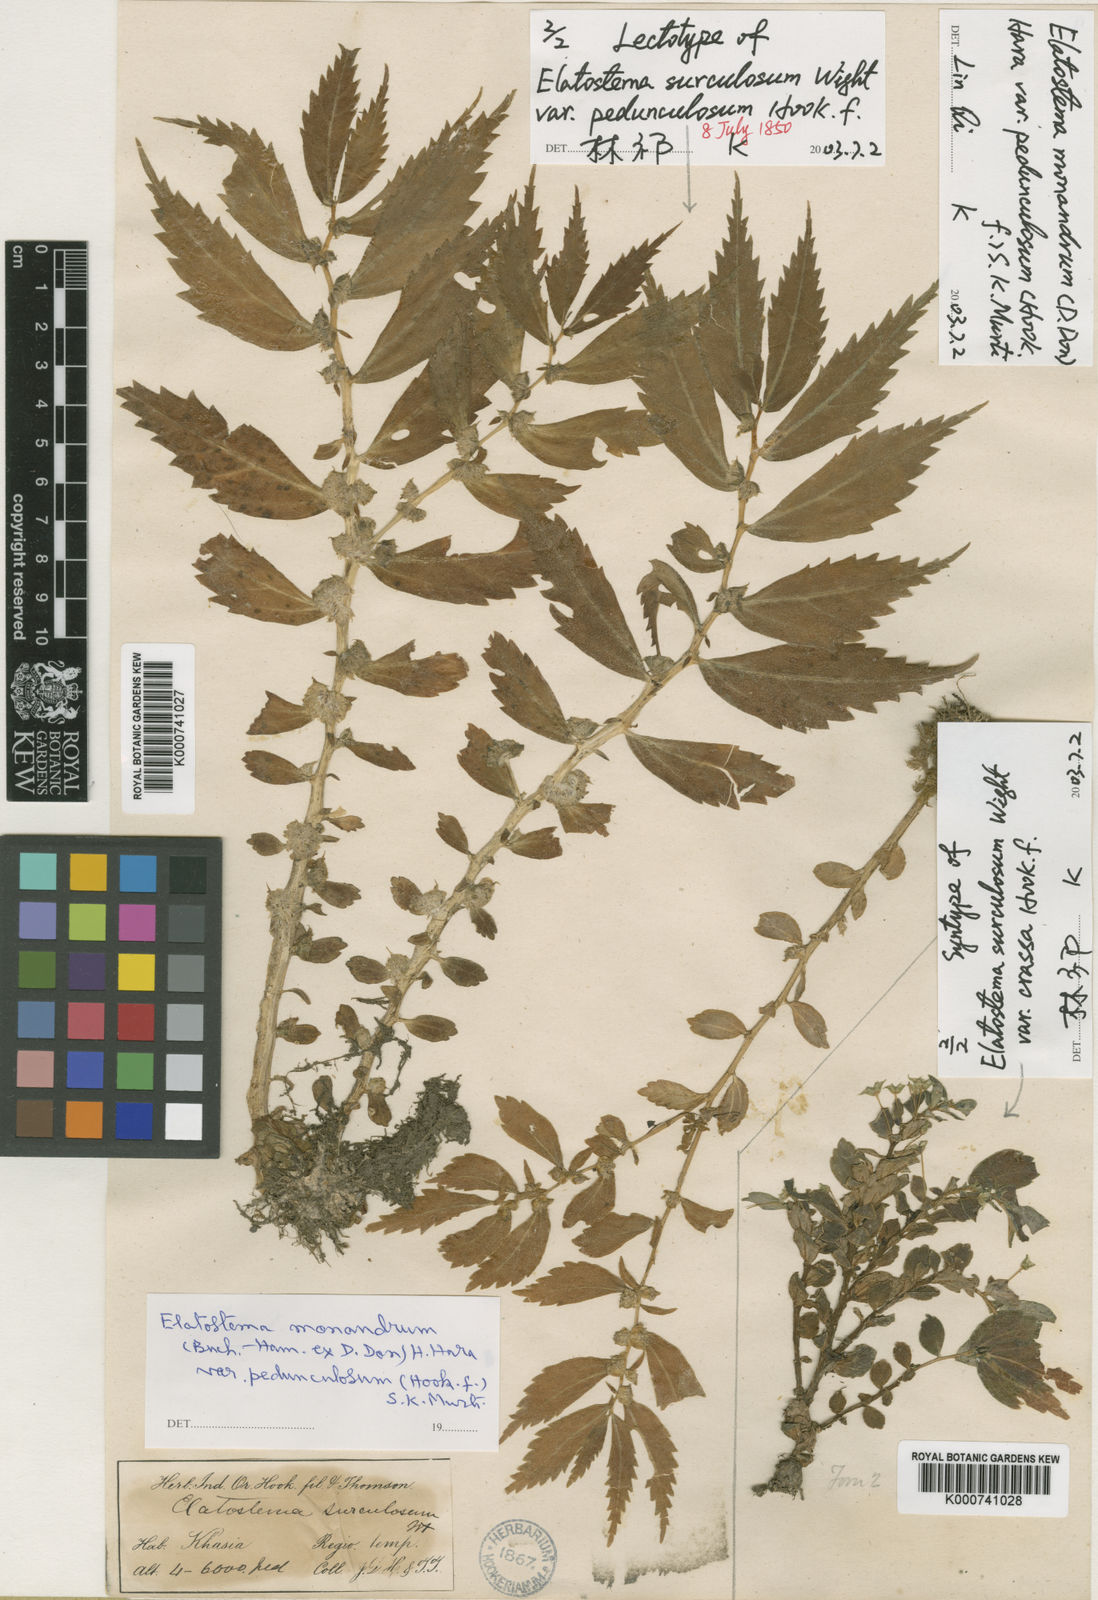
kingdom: Plantae
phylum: Tracheophyta
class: Magnoliopsida
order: Rosales
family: Urticaceae
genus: Elatostema
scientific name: Elatostema monandrum
